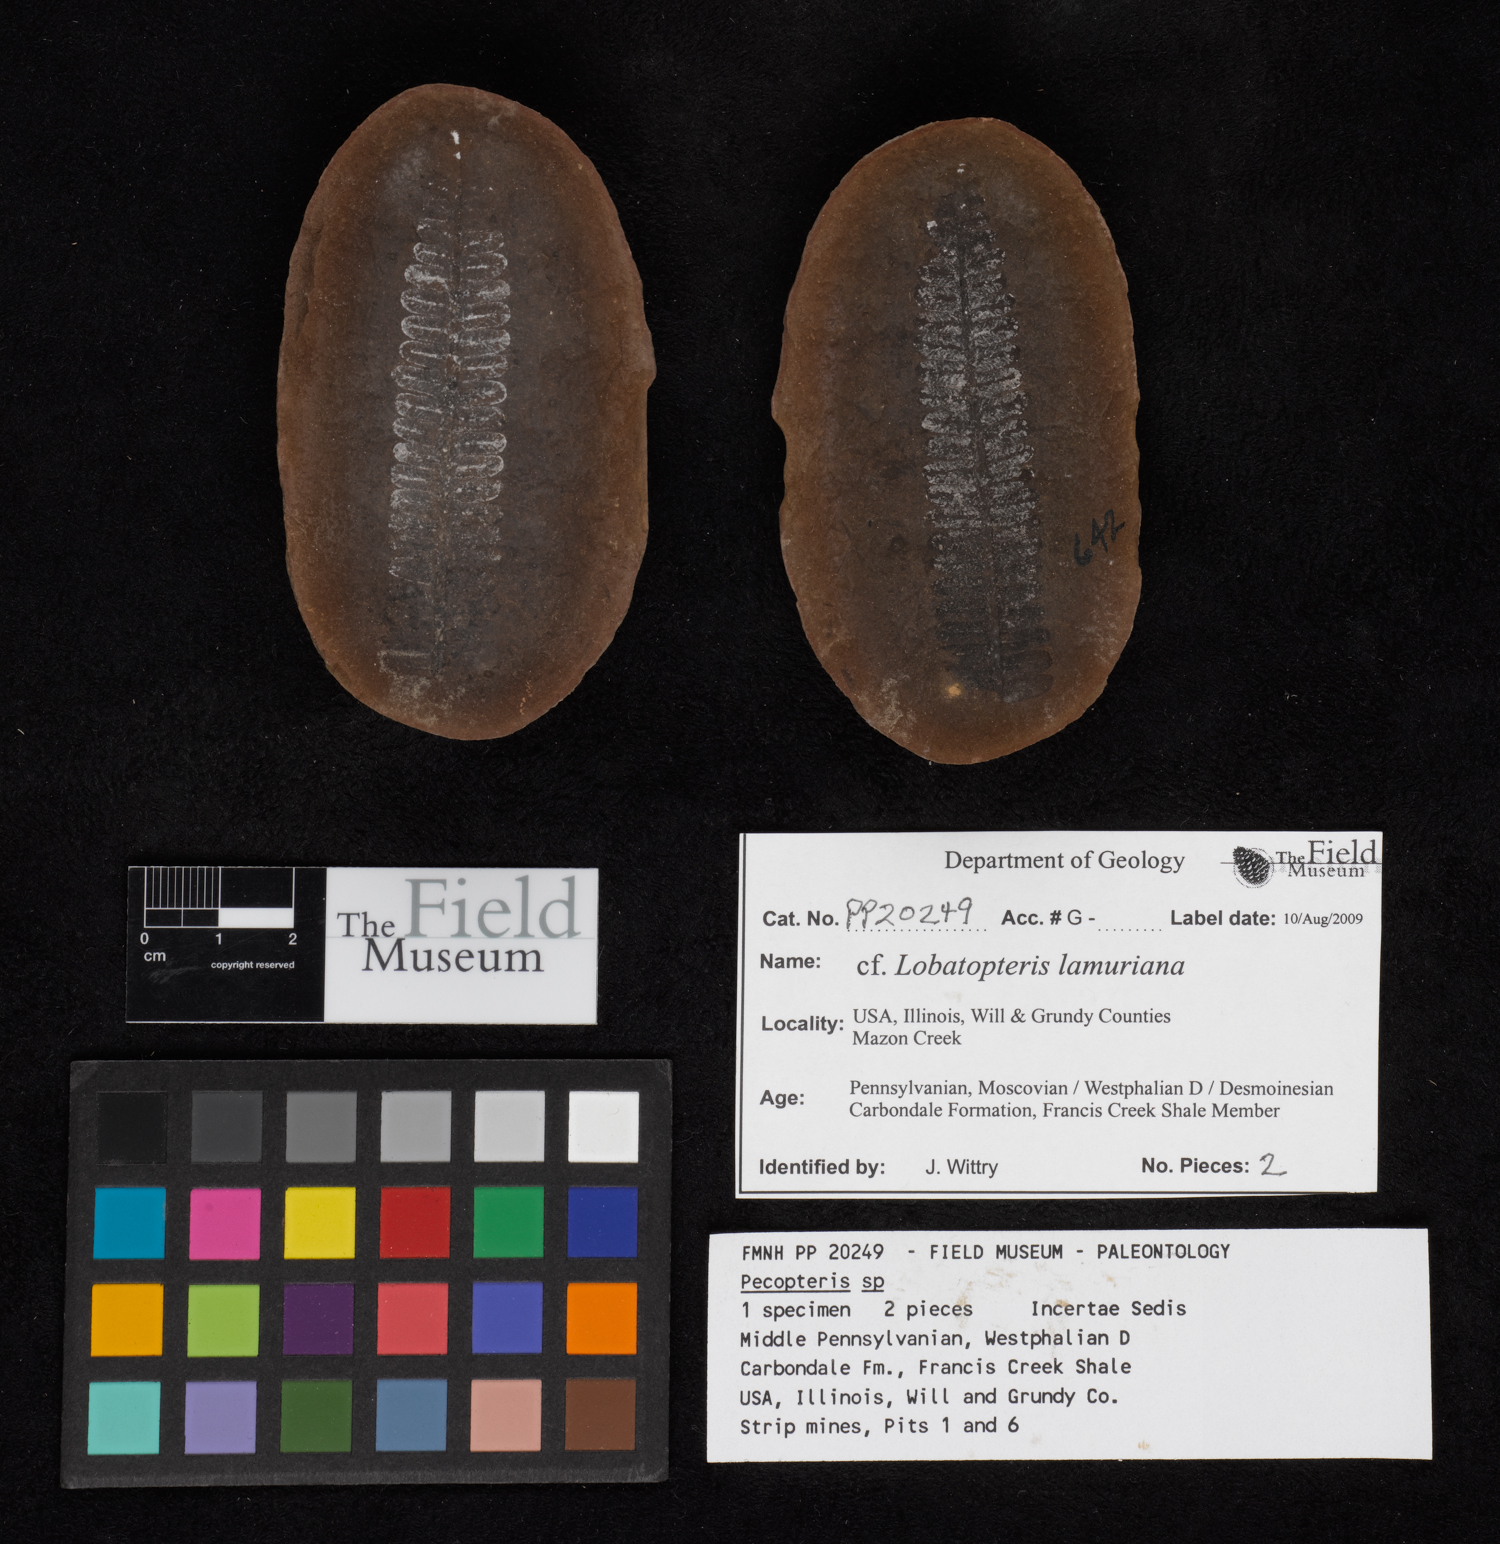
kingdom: Plantae
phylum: Tracheophyta
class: Polypodiopsida
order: Marattiales
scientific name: Marattiales
